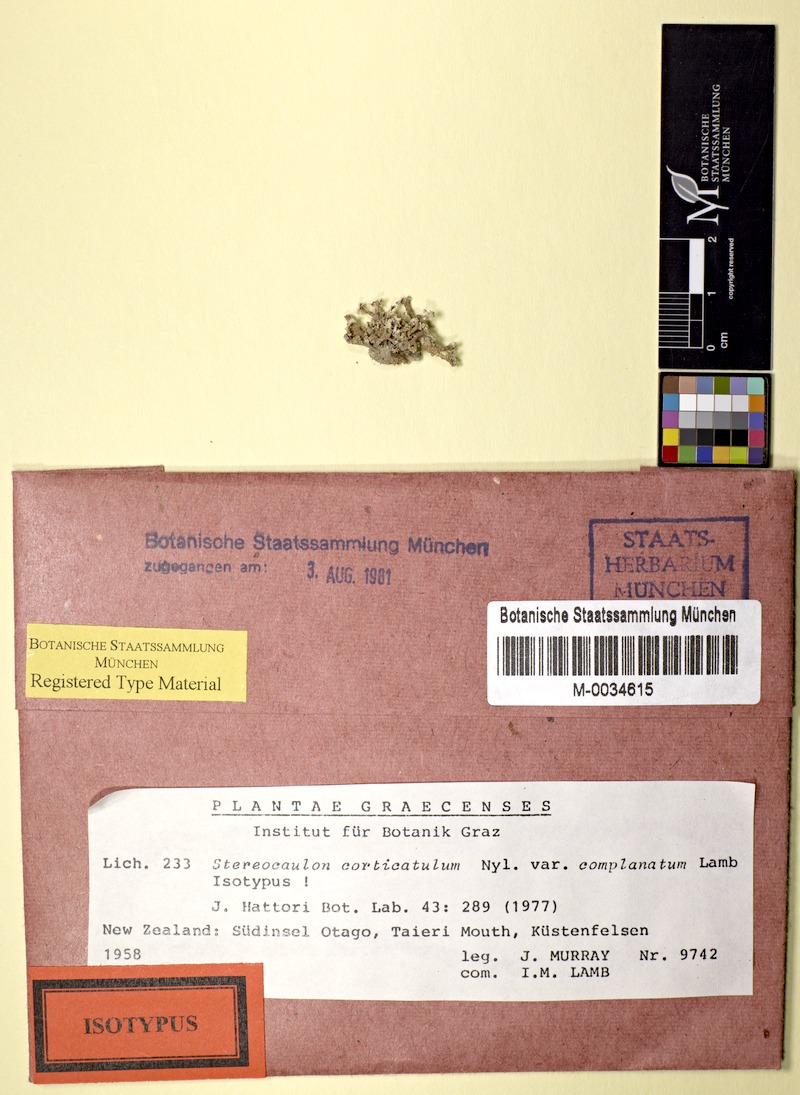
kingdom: Fungi
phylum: Ascomycota
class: Lecanoromycetes
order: Lecanorales
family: Stereocaulaceae
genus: Stereocaulon
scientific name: Stereocaulon corticulatum
